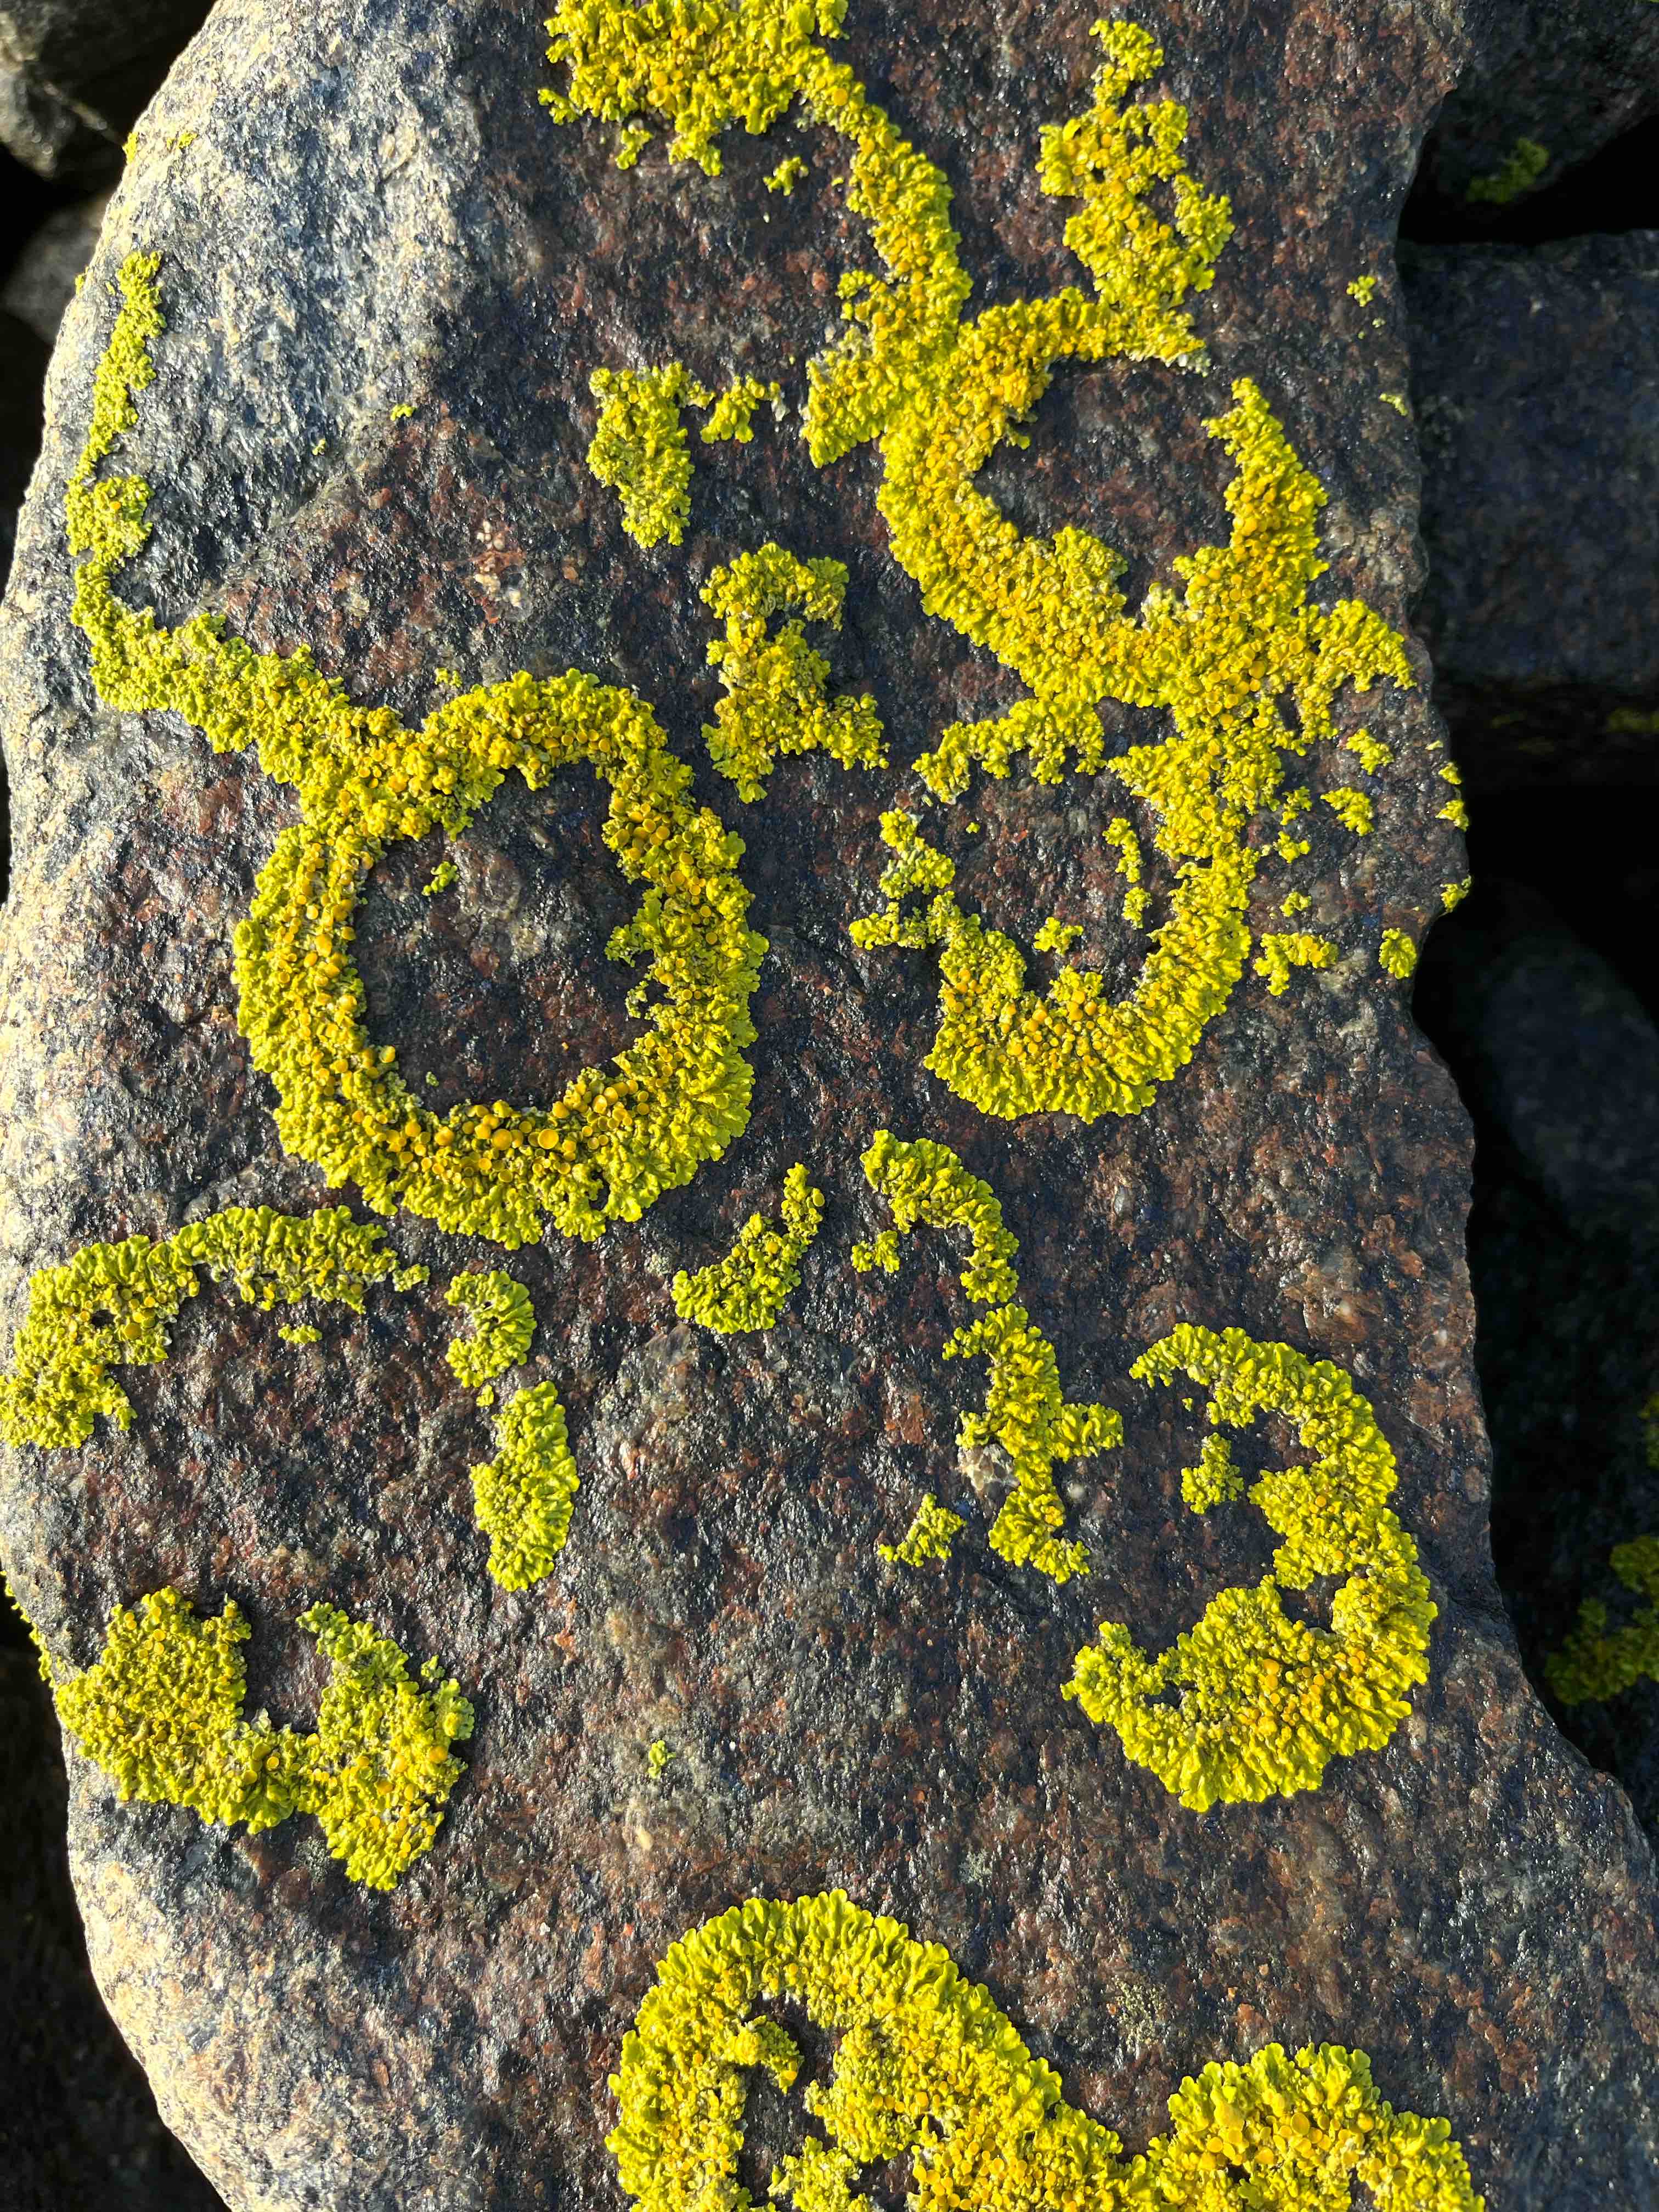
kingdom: Fungi
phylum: Ascomycota
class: Lecanoromycetes
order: Teloschistales
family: Teloschistaceae
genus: Xanthoria
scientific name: Xanthoria parietina
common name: almindelig væggelav
